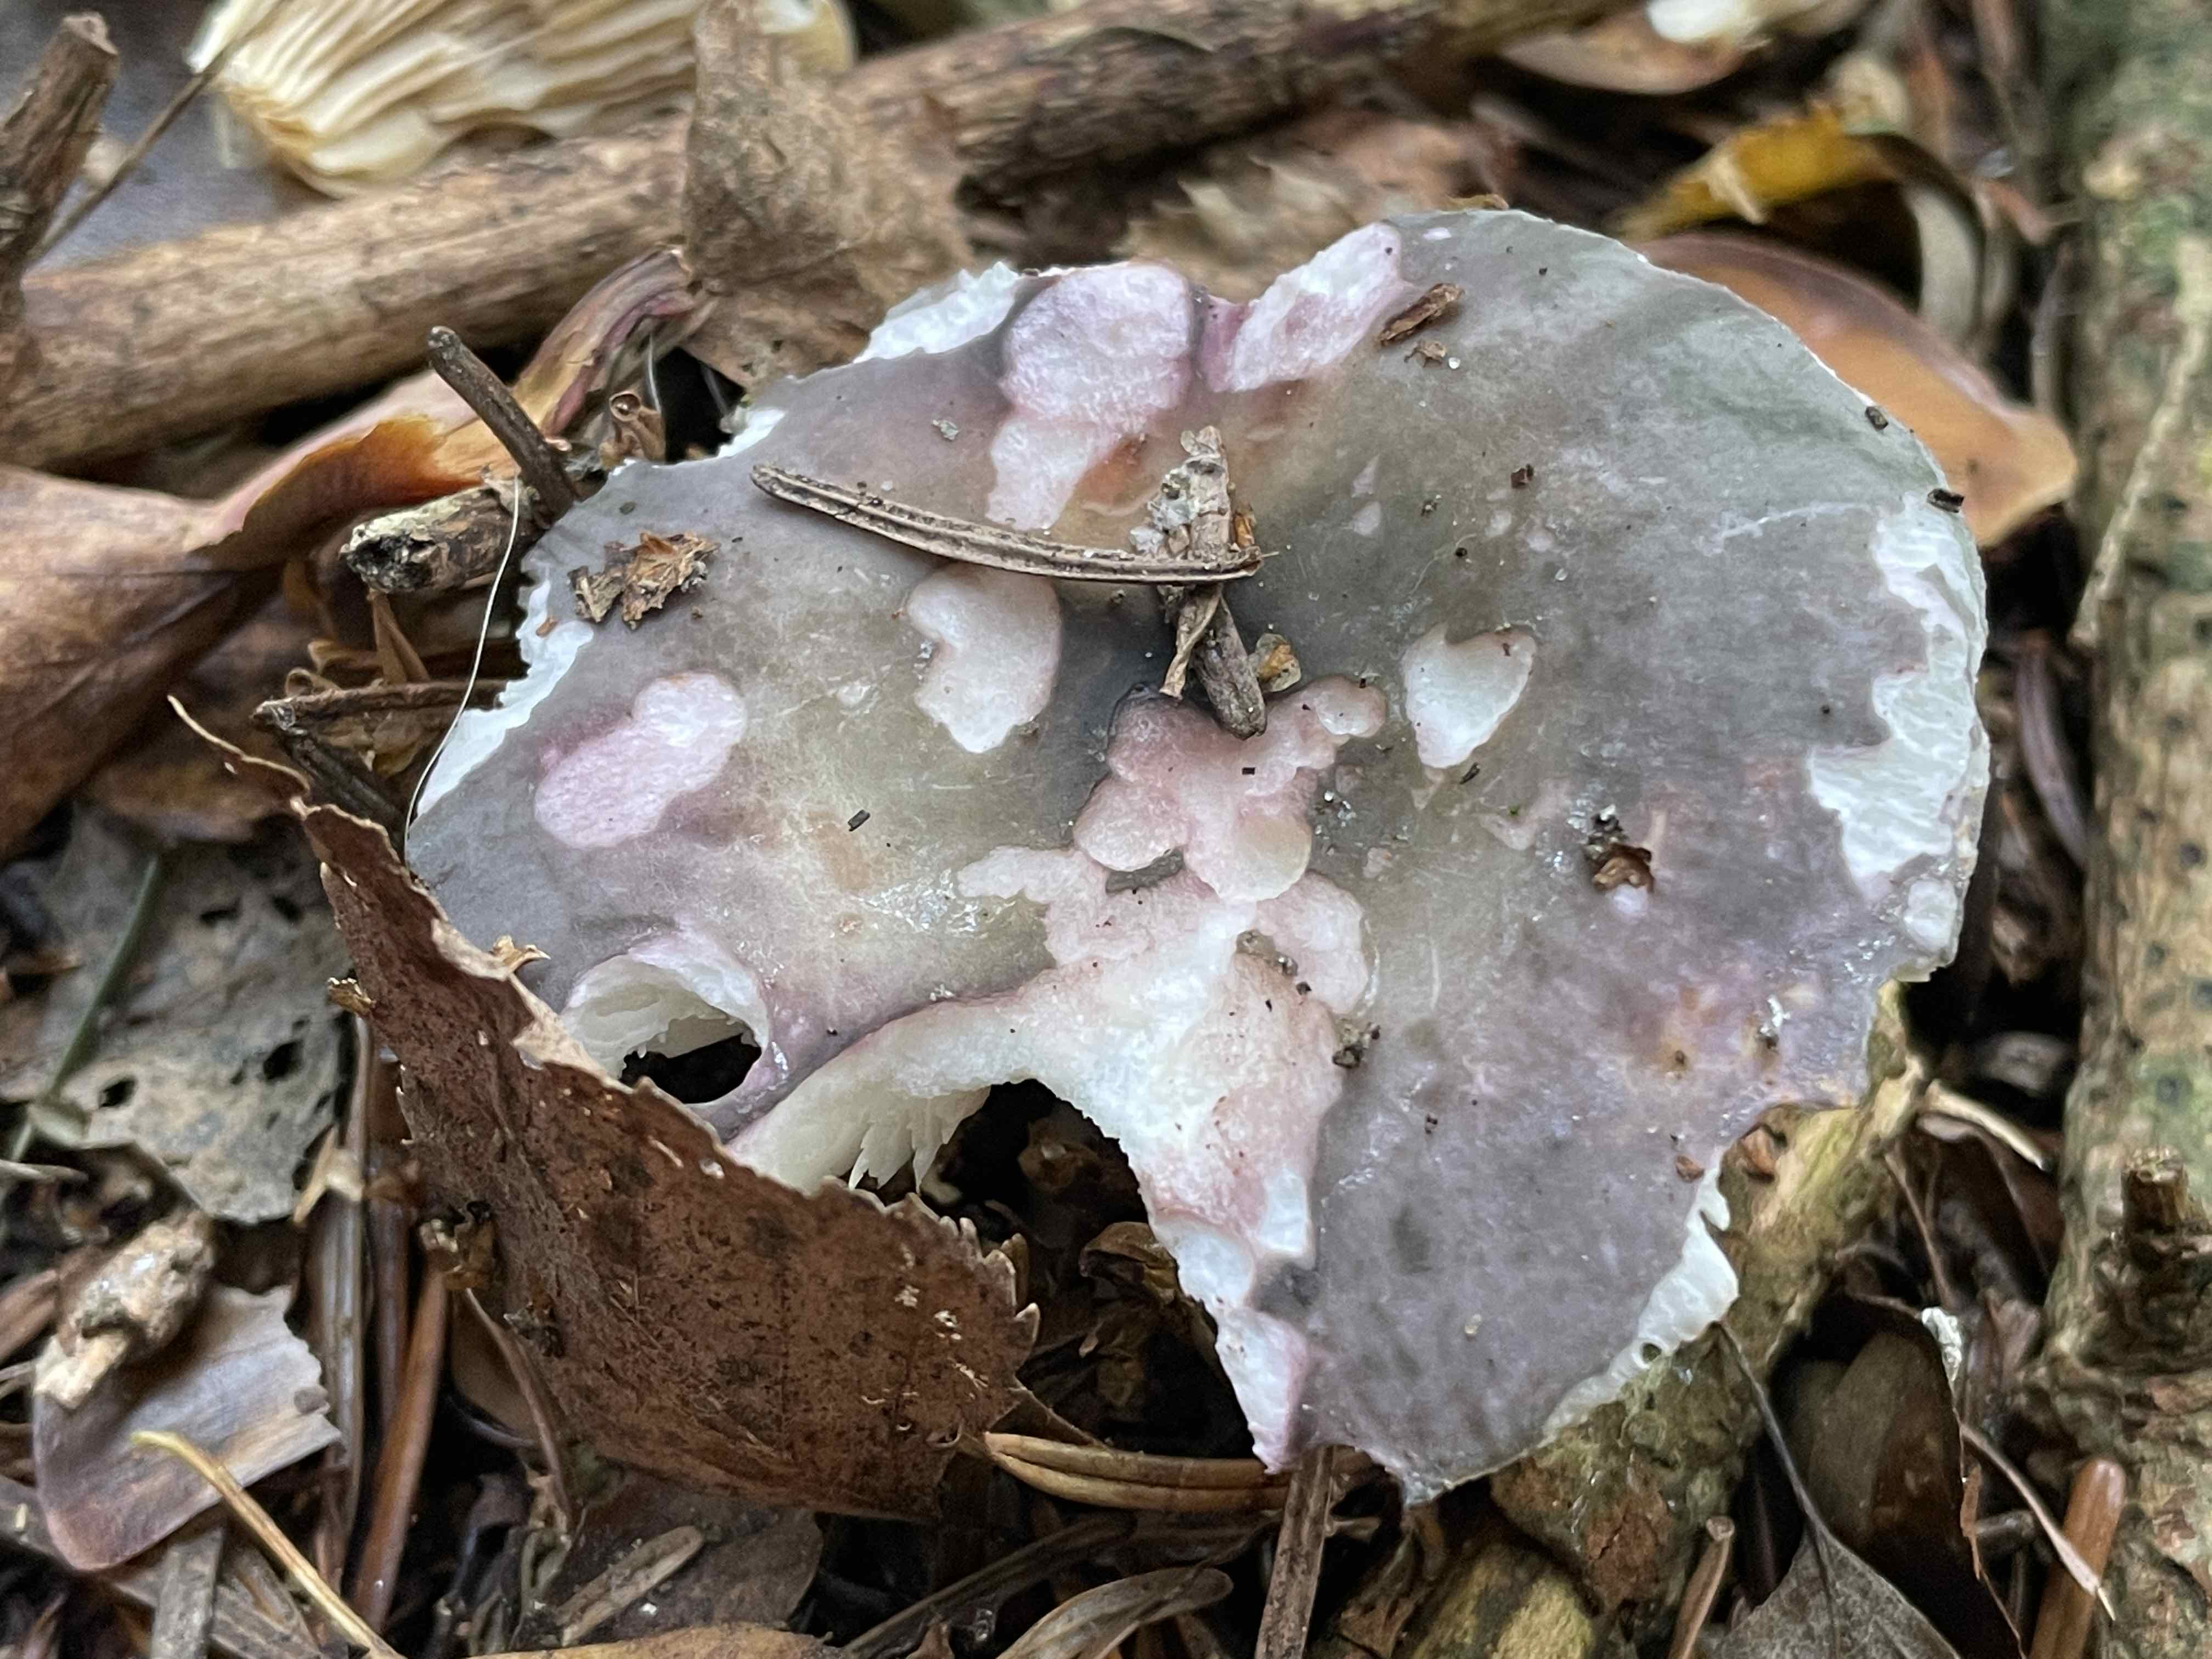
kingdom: Fungi
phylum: Basidiomycota
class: Agaricomycetes
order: Russulales
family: Russulaceae
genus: Russula
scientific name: Russula cyanoxantha
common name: broget skørhat
